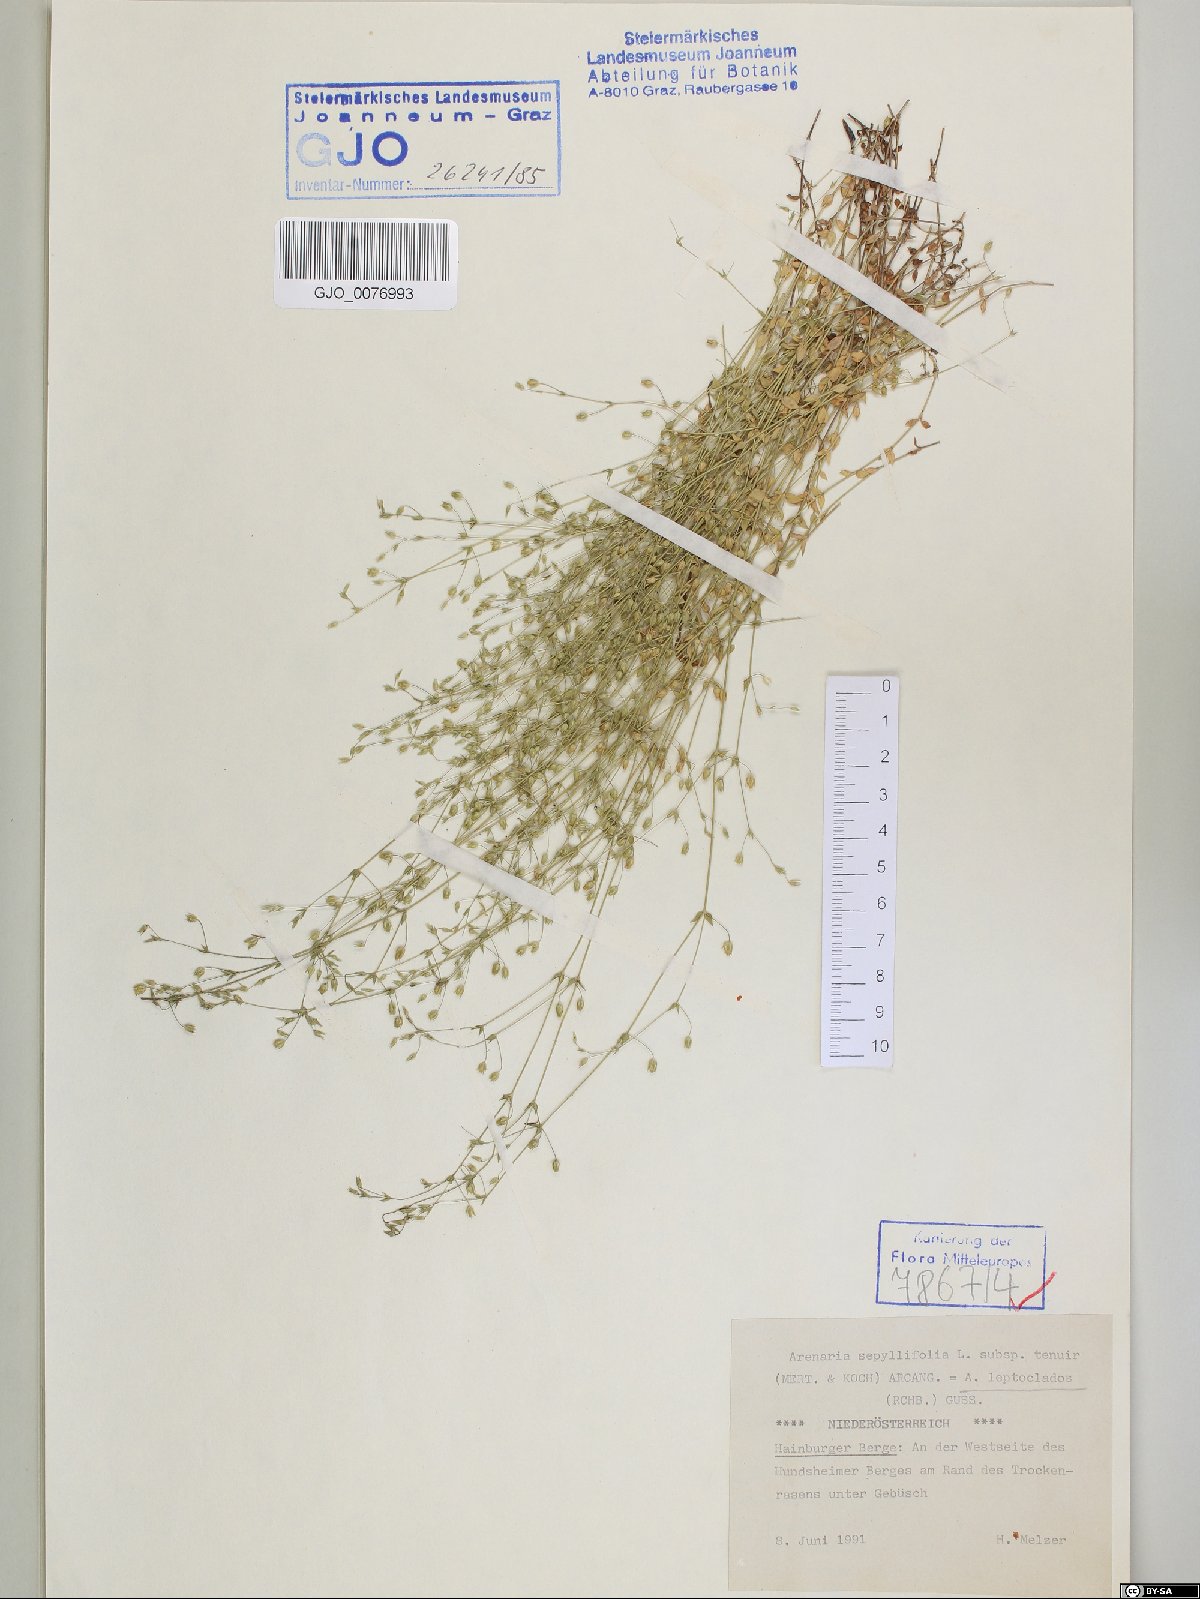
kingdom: Plantae
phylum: Tracheophyta
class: Magnoliopsida
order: Caryophyllales
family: Caryophyllaceae
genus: Arenaria
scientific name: Arenaria leptoclados
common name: Thyme-leaved sandwort
